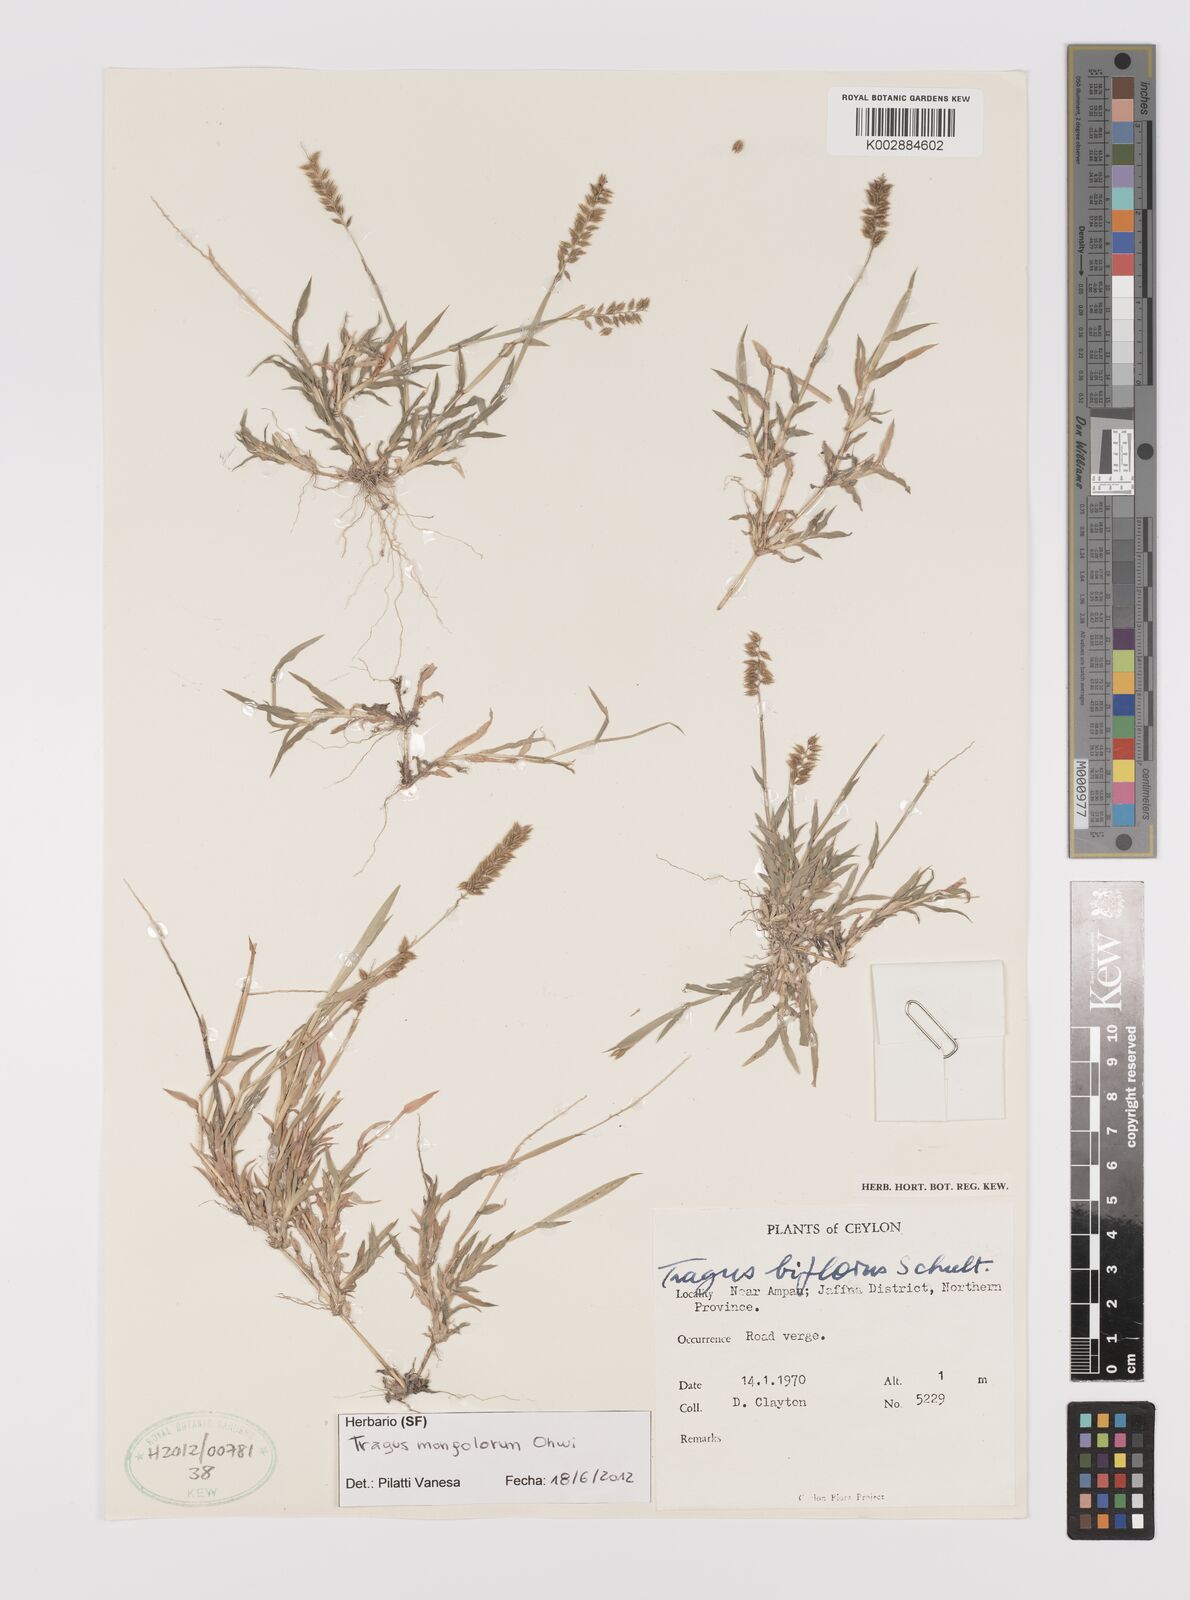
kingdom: Plantae
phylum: Tracheophyta
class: Liliopsida
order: Poales
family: Poaceae
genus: Tragus
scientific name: Tragus mongolorum
